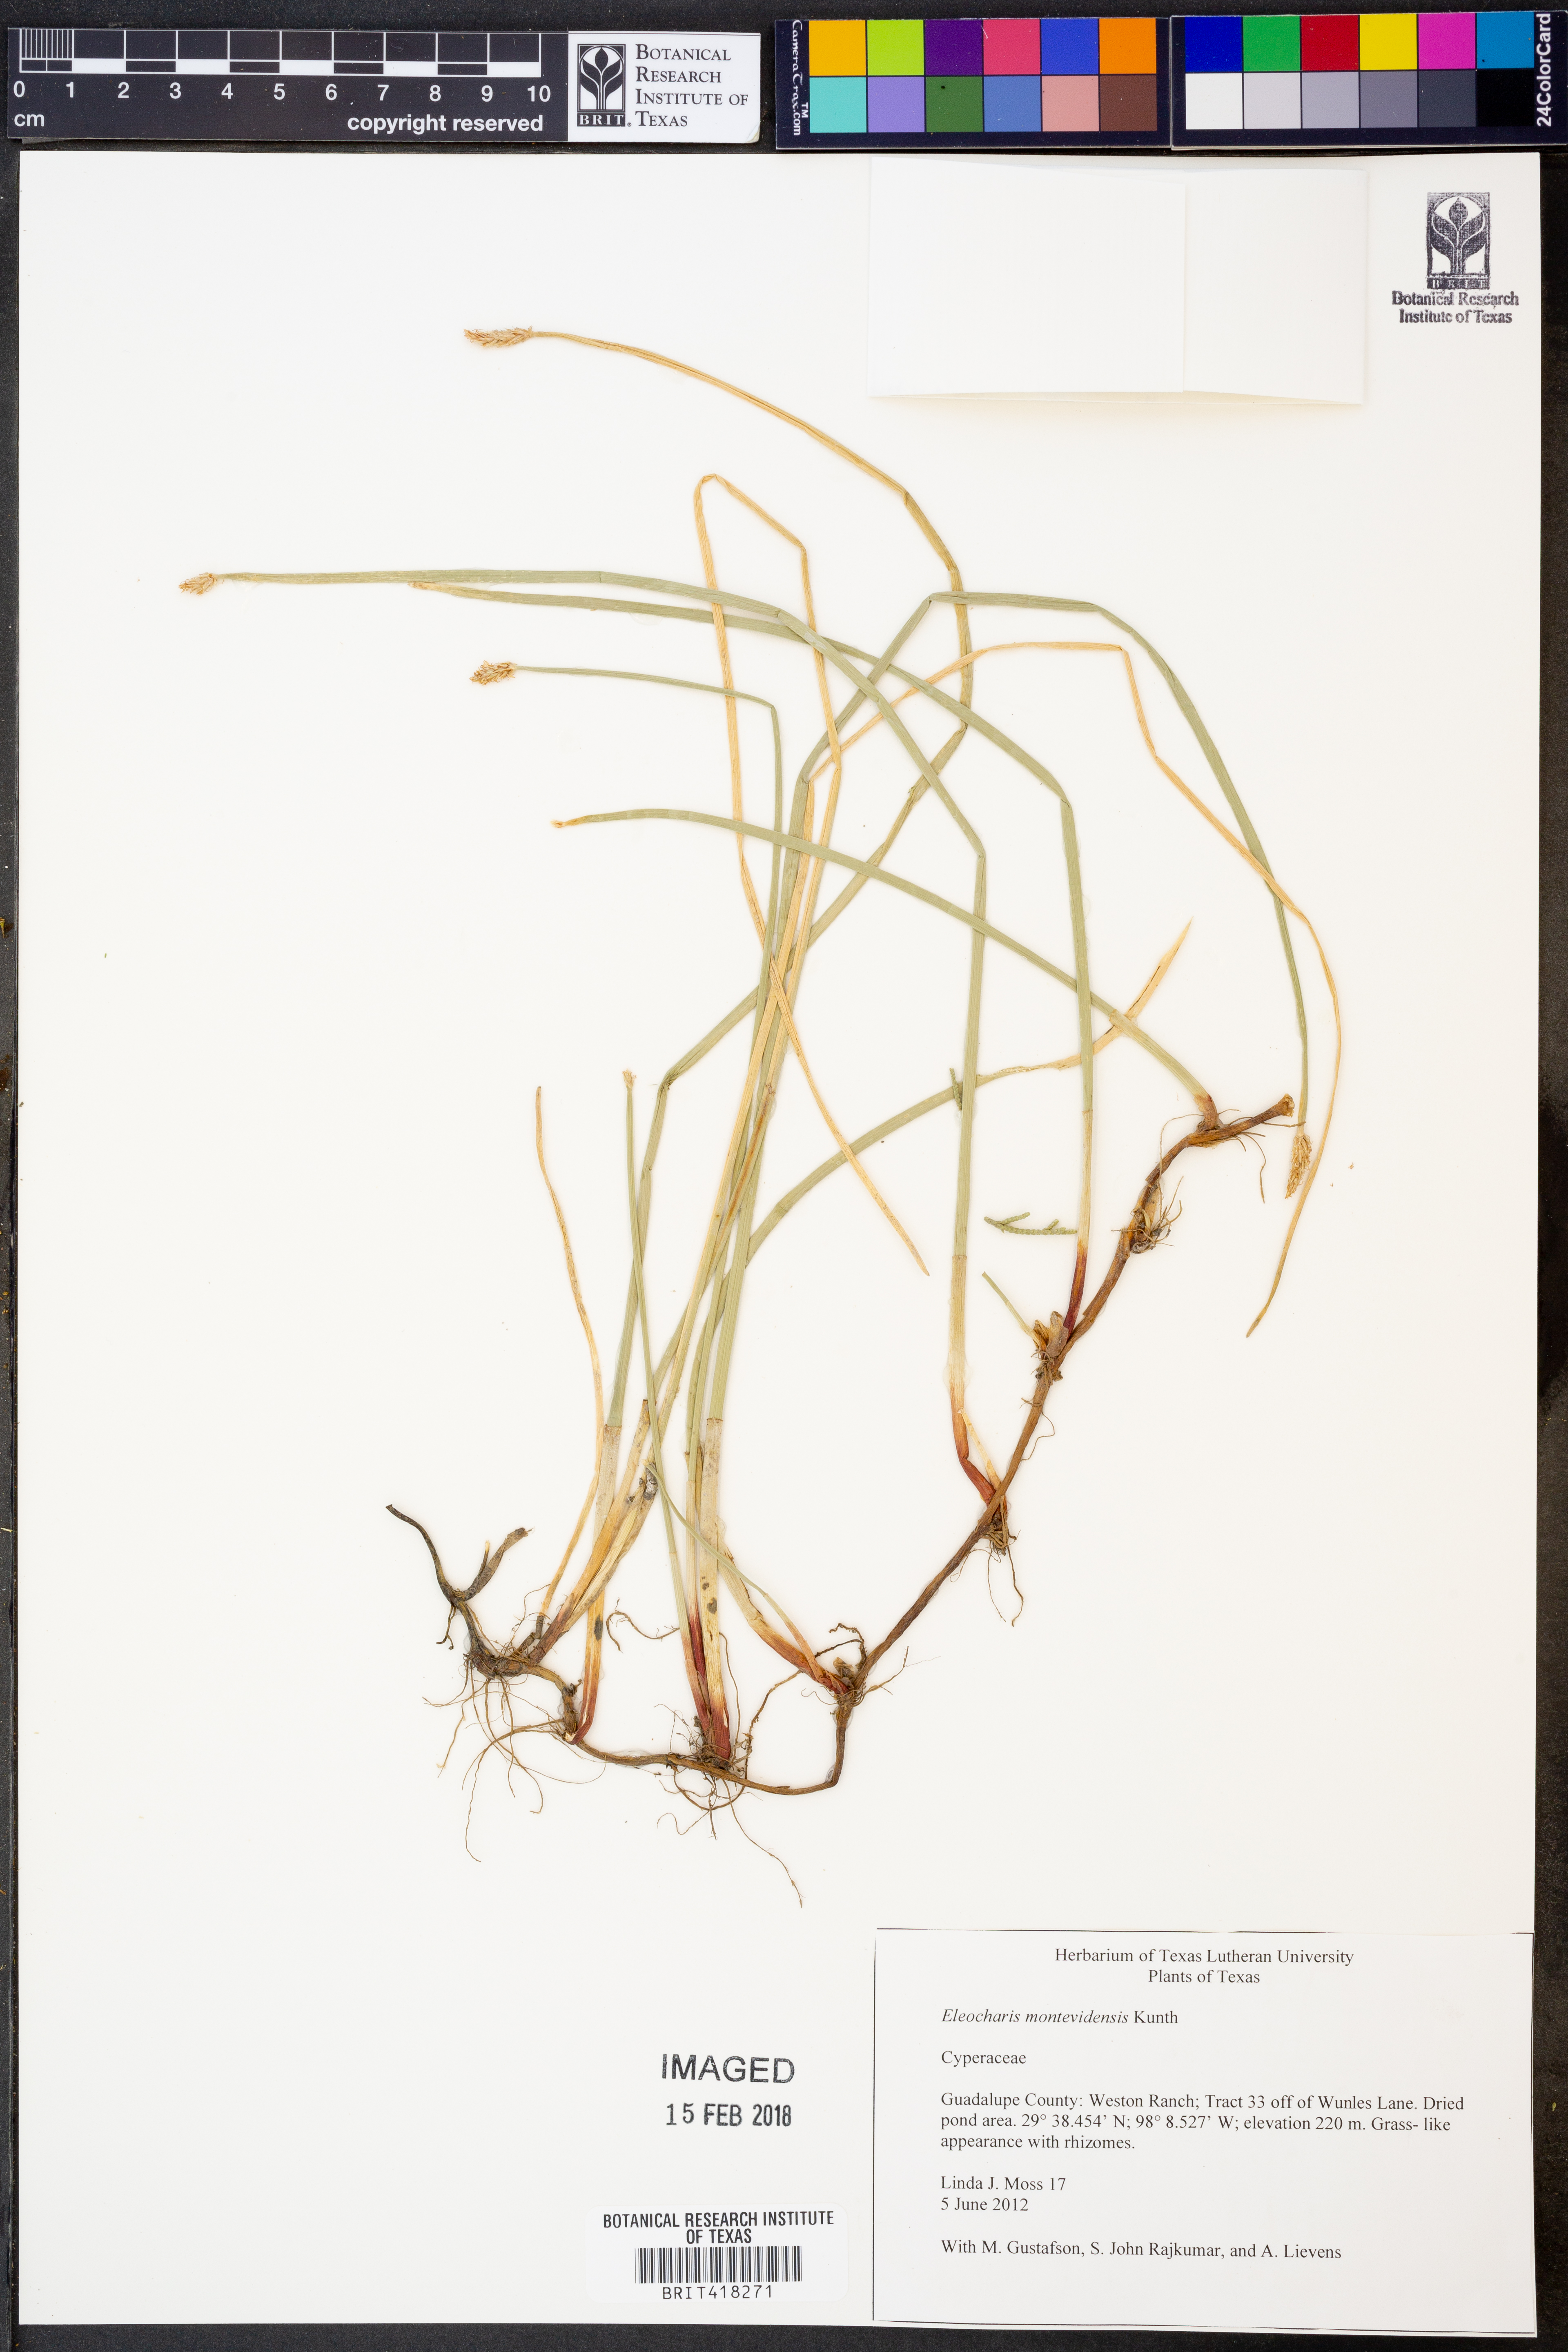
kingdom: Plantae
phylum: Tracheophyta
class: Liliopsida
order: Poales
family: Cyperaceae
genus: Eleocharis
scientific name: Eleocharis montevidensis
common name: Sand spike-rush
